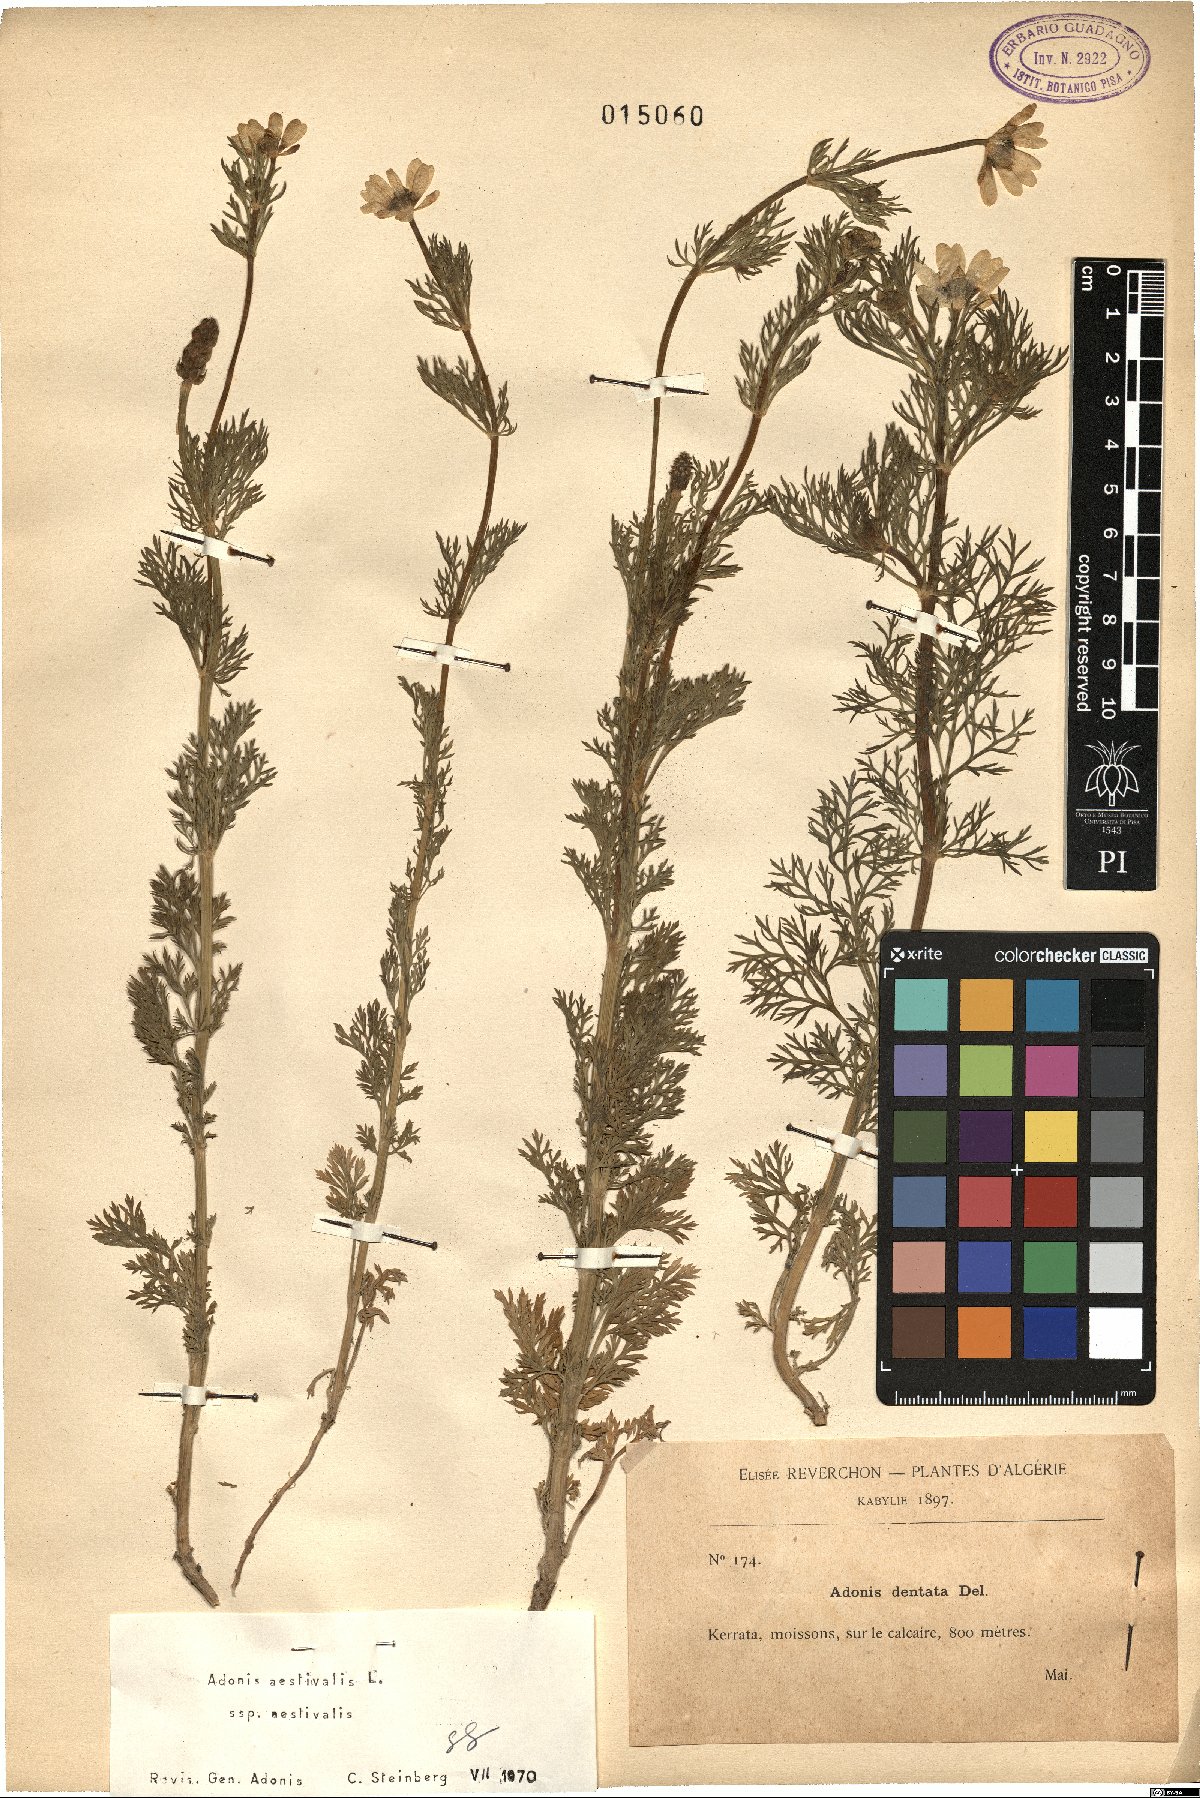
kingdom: Plantae
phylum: Tracheophyta
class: Magnoliopsida
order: Ranunculales
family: Ranunculaceae
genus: Adonis
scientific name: Adonis aestivalis
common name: Summer pheasant's-eye
